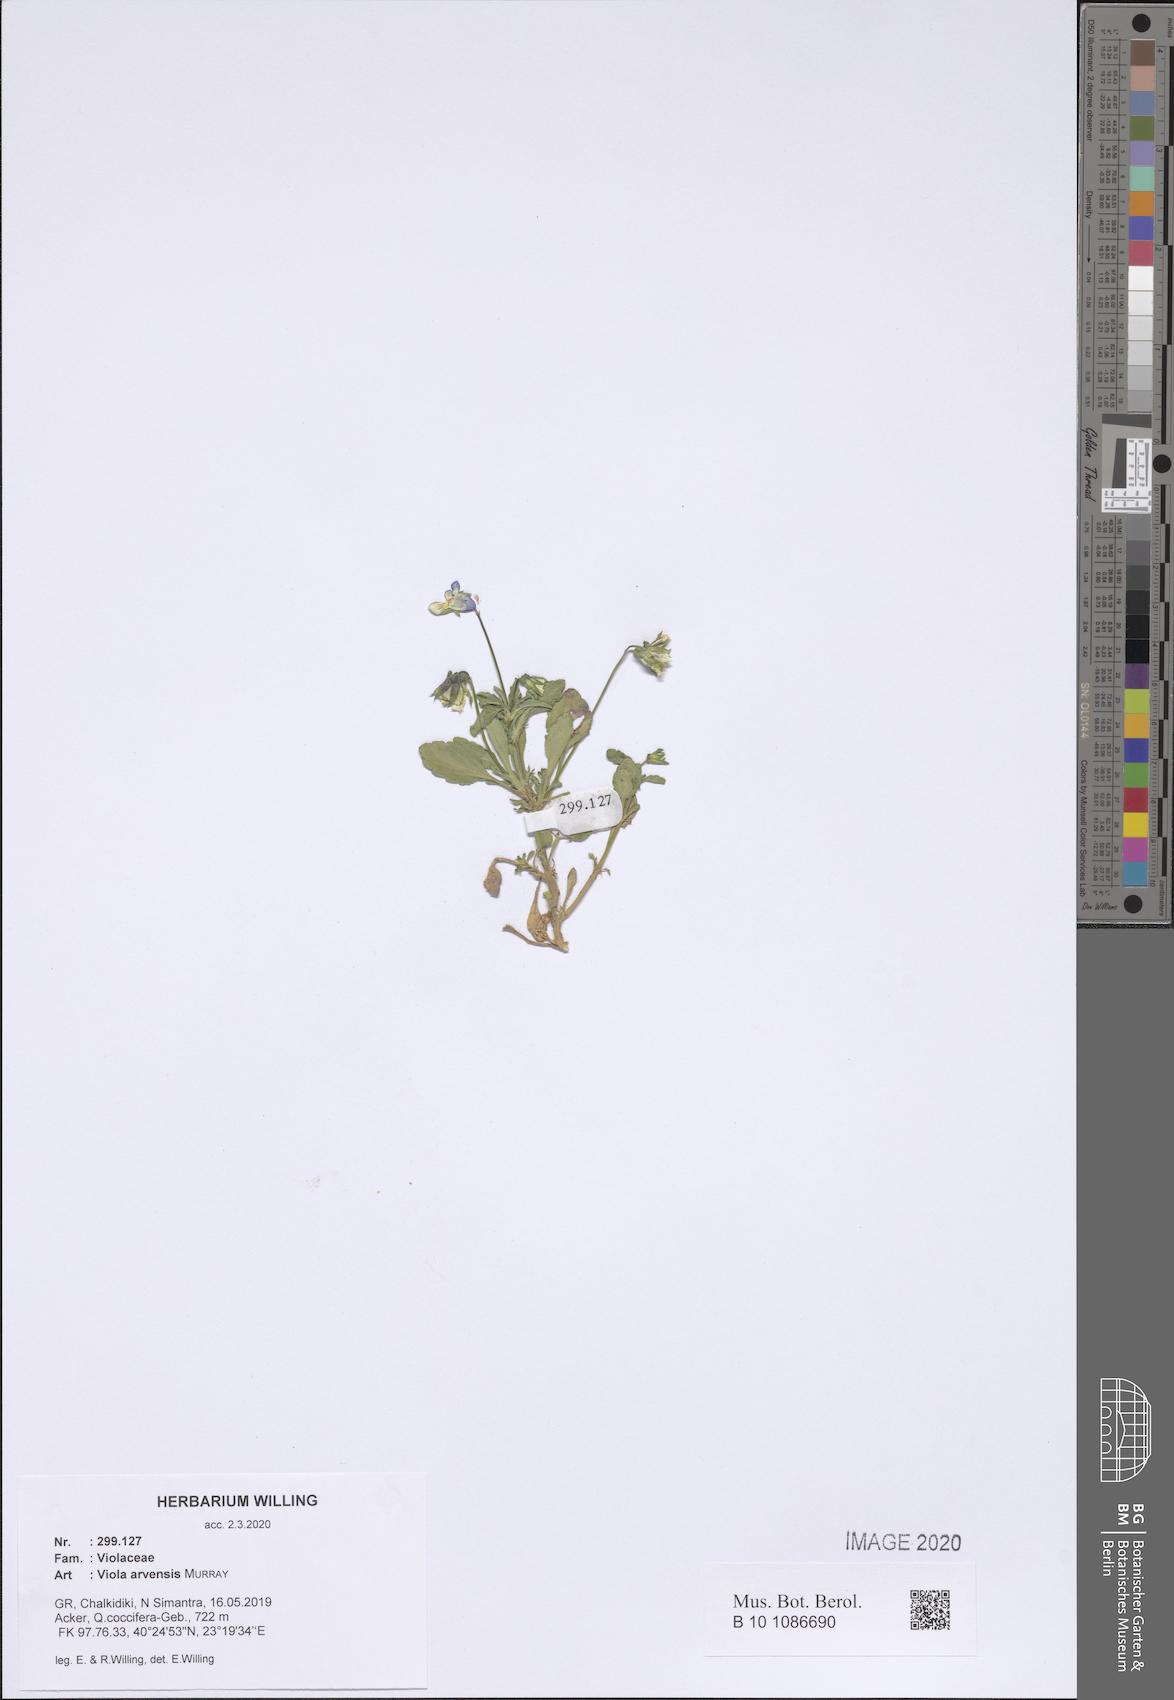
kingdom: Plantae
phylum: Tracheophyta
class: Magnoliopsida
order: Malpighiales
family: Violaceae
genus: Viola
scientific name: Viola arvensis
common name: Field pansy
